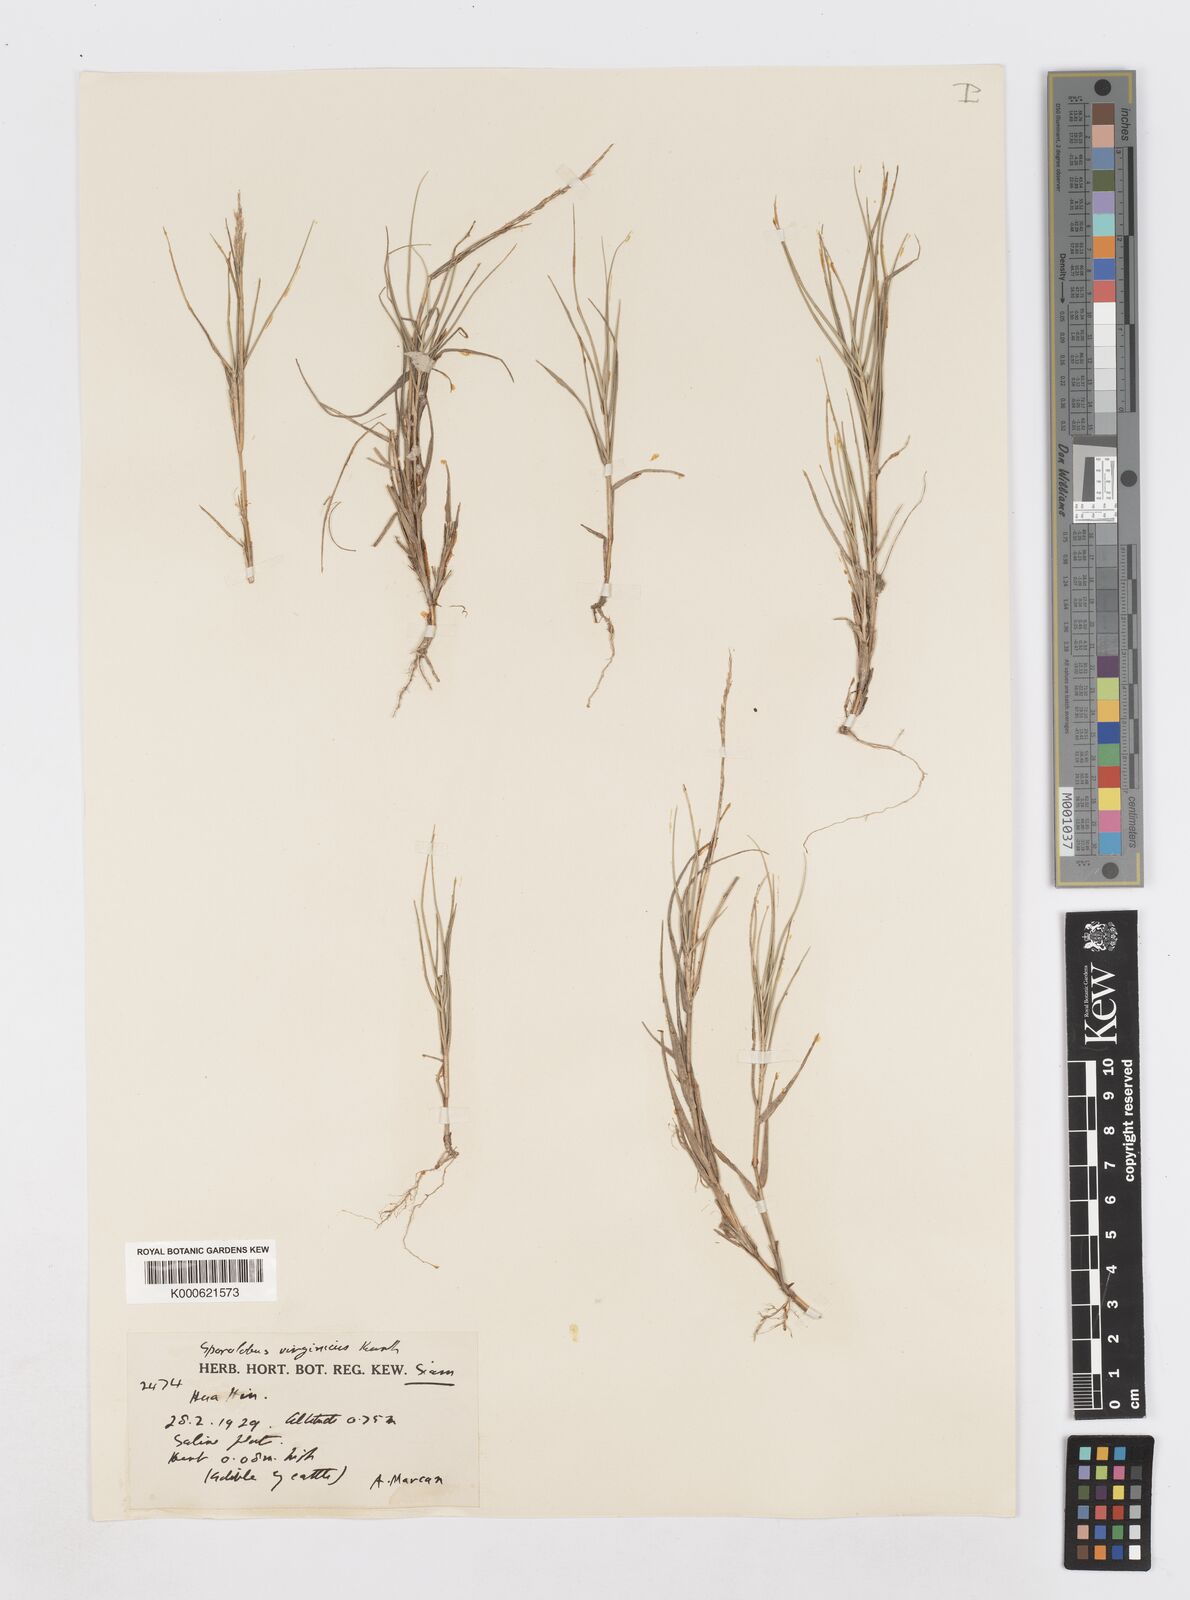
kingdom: Plantae
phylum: Tracheophyta
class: Liliopsida
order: Poales
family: Poaceae
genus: Sporobolus
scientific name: Sporobolus virginicus
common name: Beach dropseed
